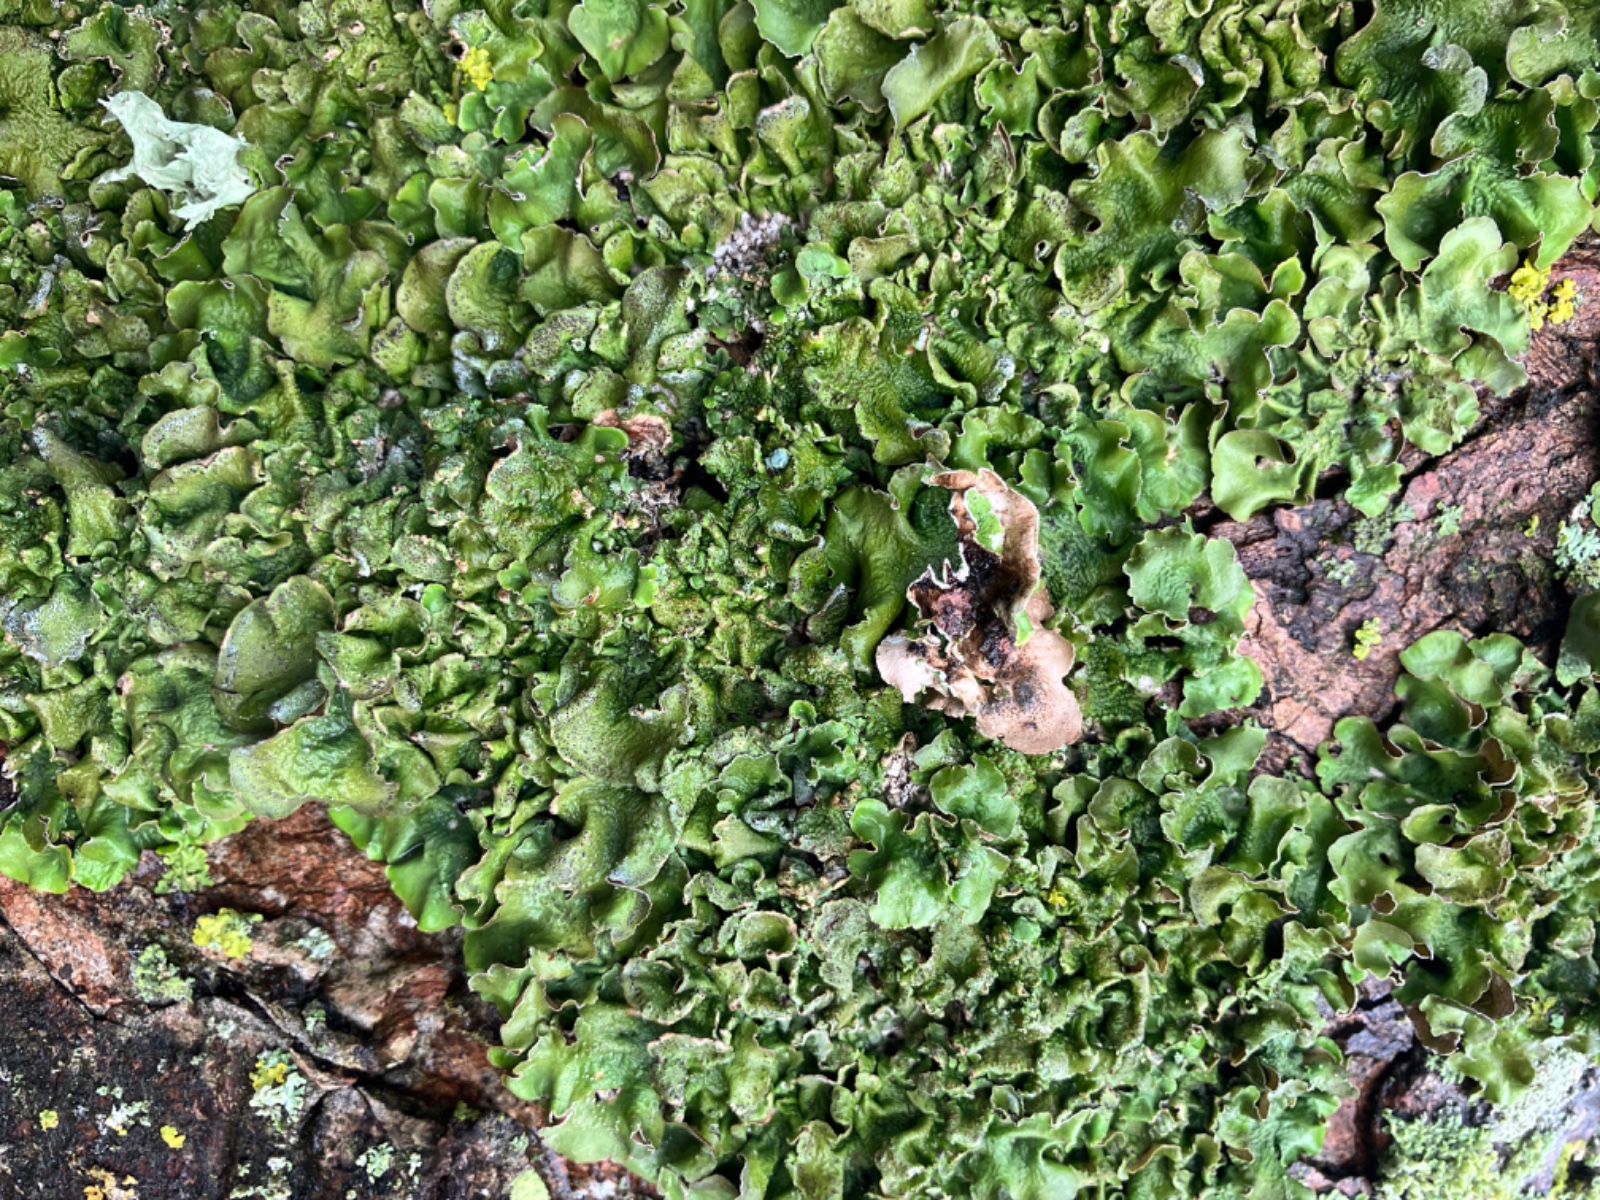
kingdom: Fungi
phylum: Ascomycota
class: Lecanoromycetes
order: Lecanorales
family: Parmeliaceae
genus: Pleurosticta
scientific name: Pleurosticta acetabulum
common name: stor skållav
